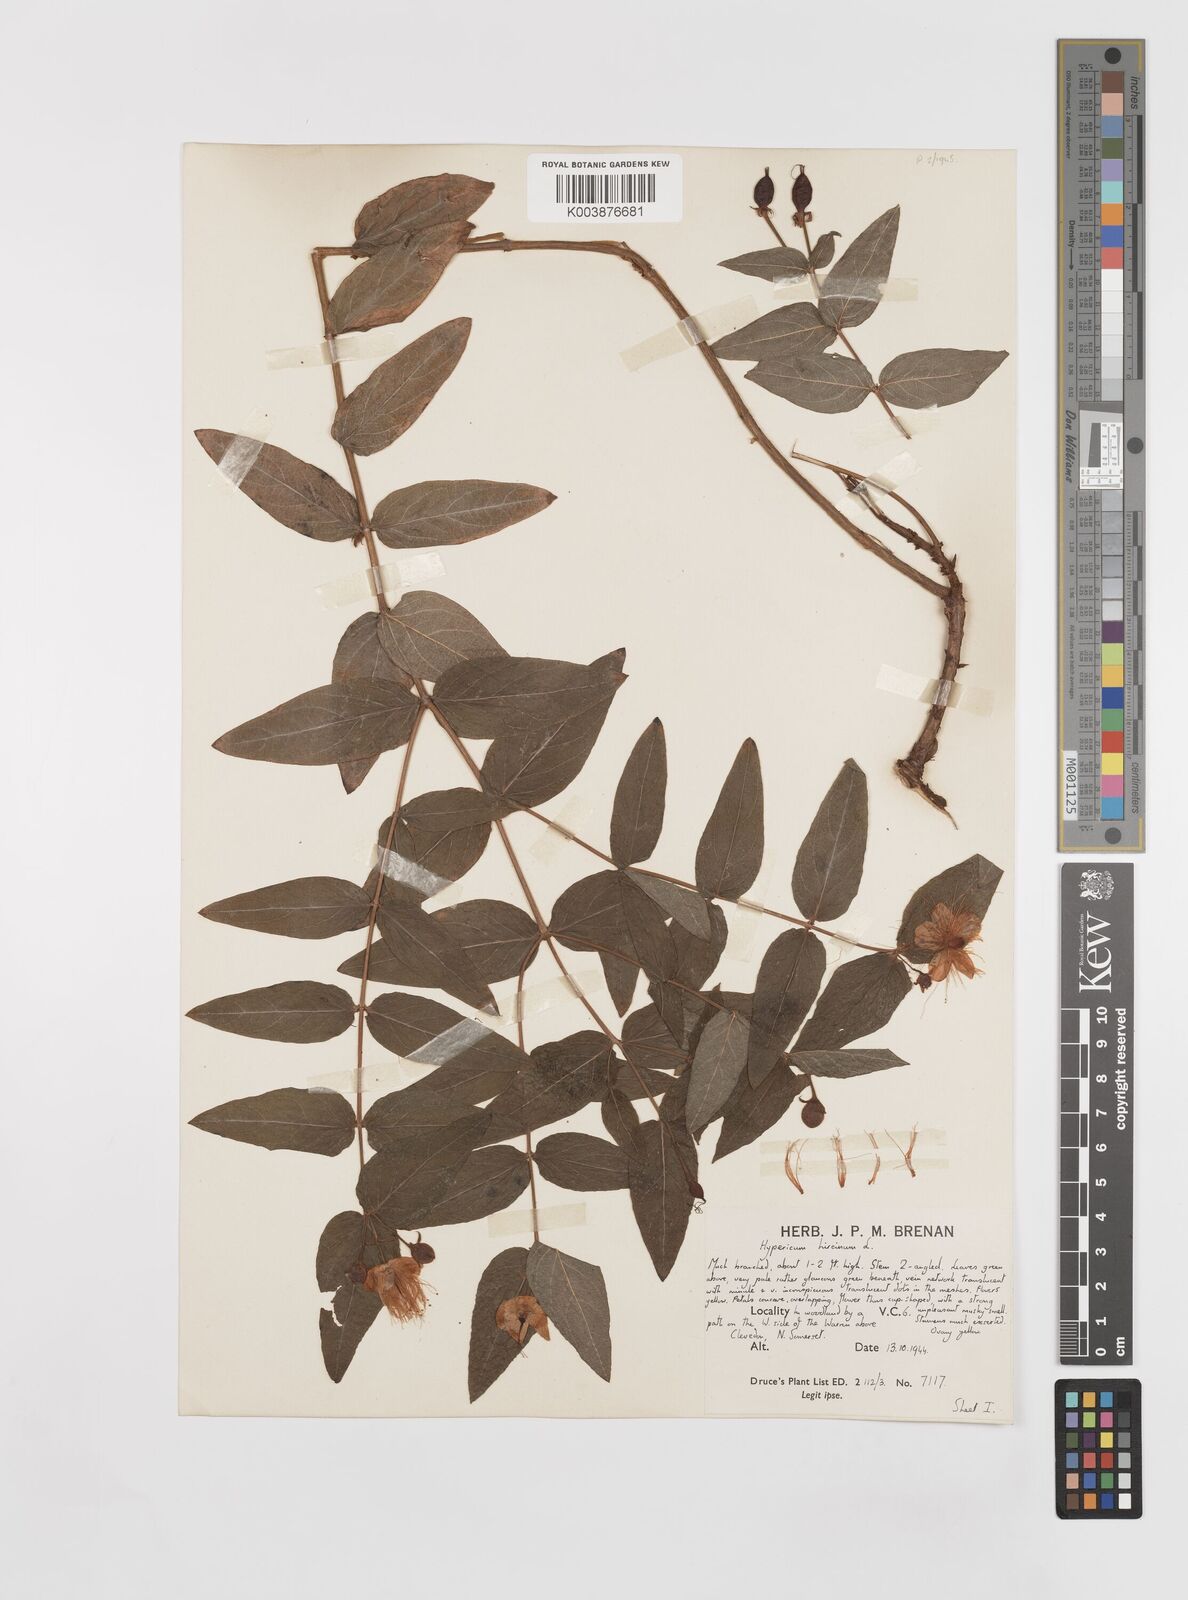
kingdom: Plantae
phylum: Tracheophyta
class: Magnoliopsida
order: Malpighiales
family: Hypericaceae
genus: Hypericum
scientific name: Hypericum hircinum
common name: Stinking tutsan
